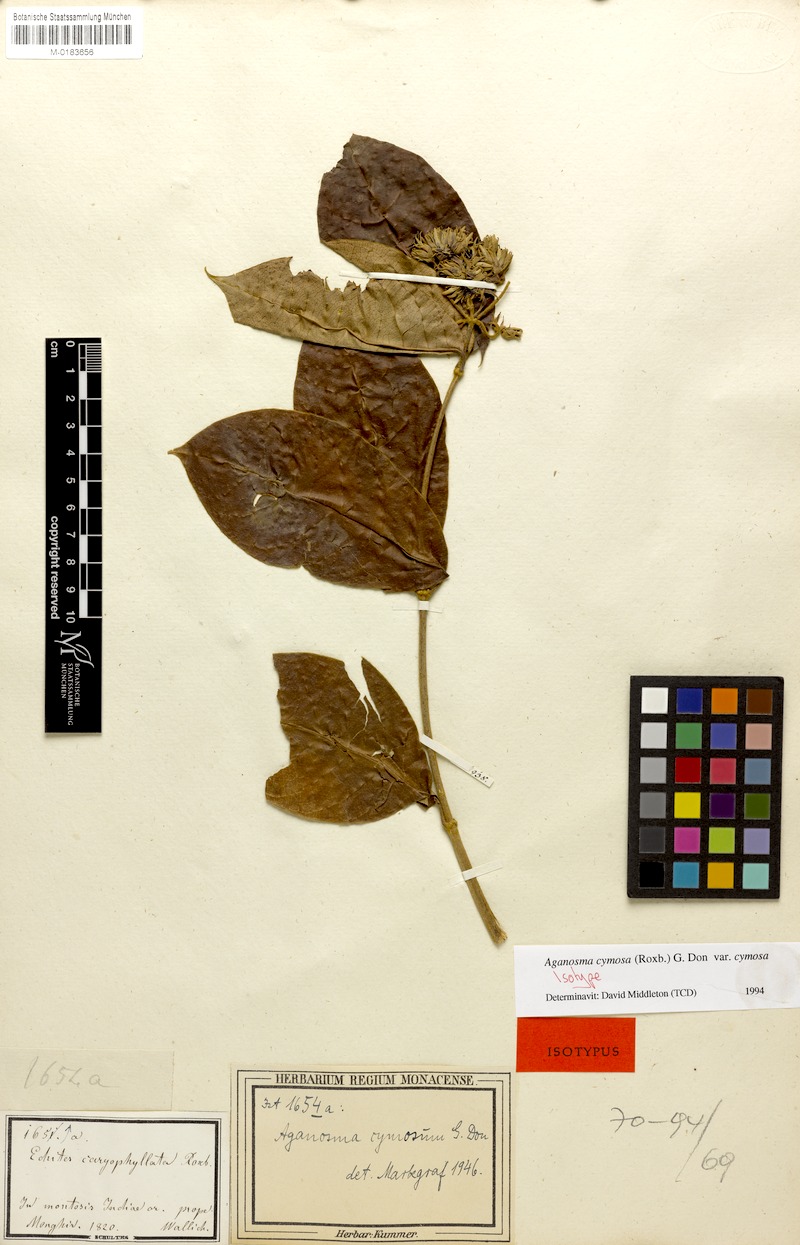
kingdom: Plantae
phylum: Tracheophyta
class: Magnoliopsida
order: Gentianales
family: Apocynaceae
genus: Aganosma
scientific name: Aganosma cymosa
